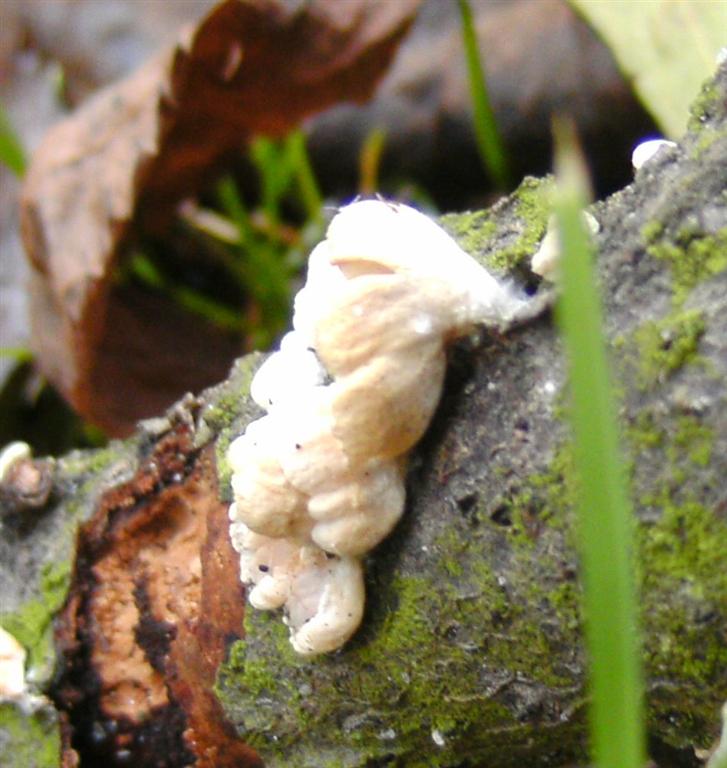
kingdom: Fungi
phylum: Basidiomycota
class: Agaricomycetes
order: Agaricales
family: Crepidotaceae
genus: Crepidotus
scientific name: Crepidotus cesatii
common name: almindelig muslingesvamp
